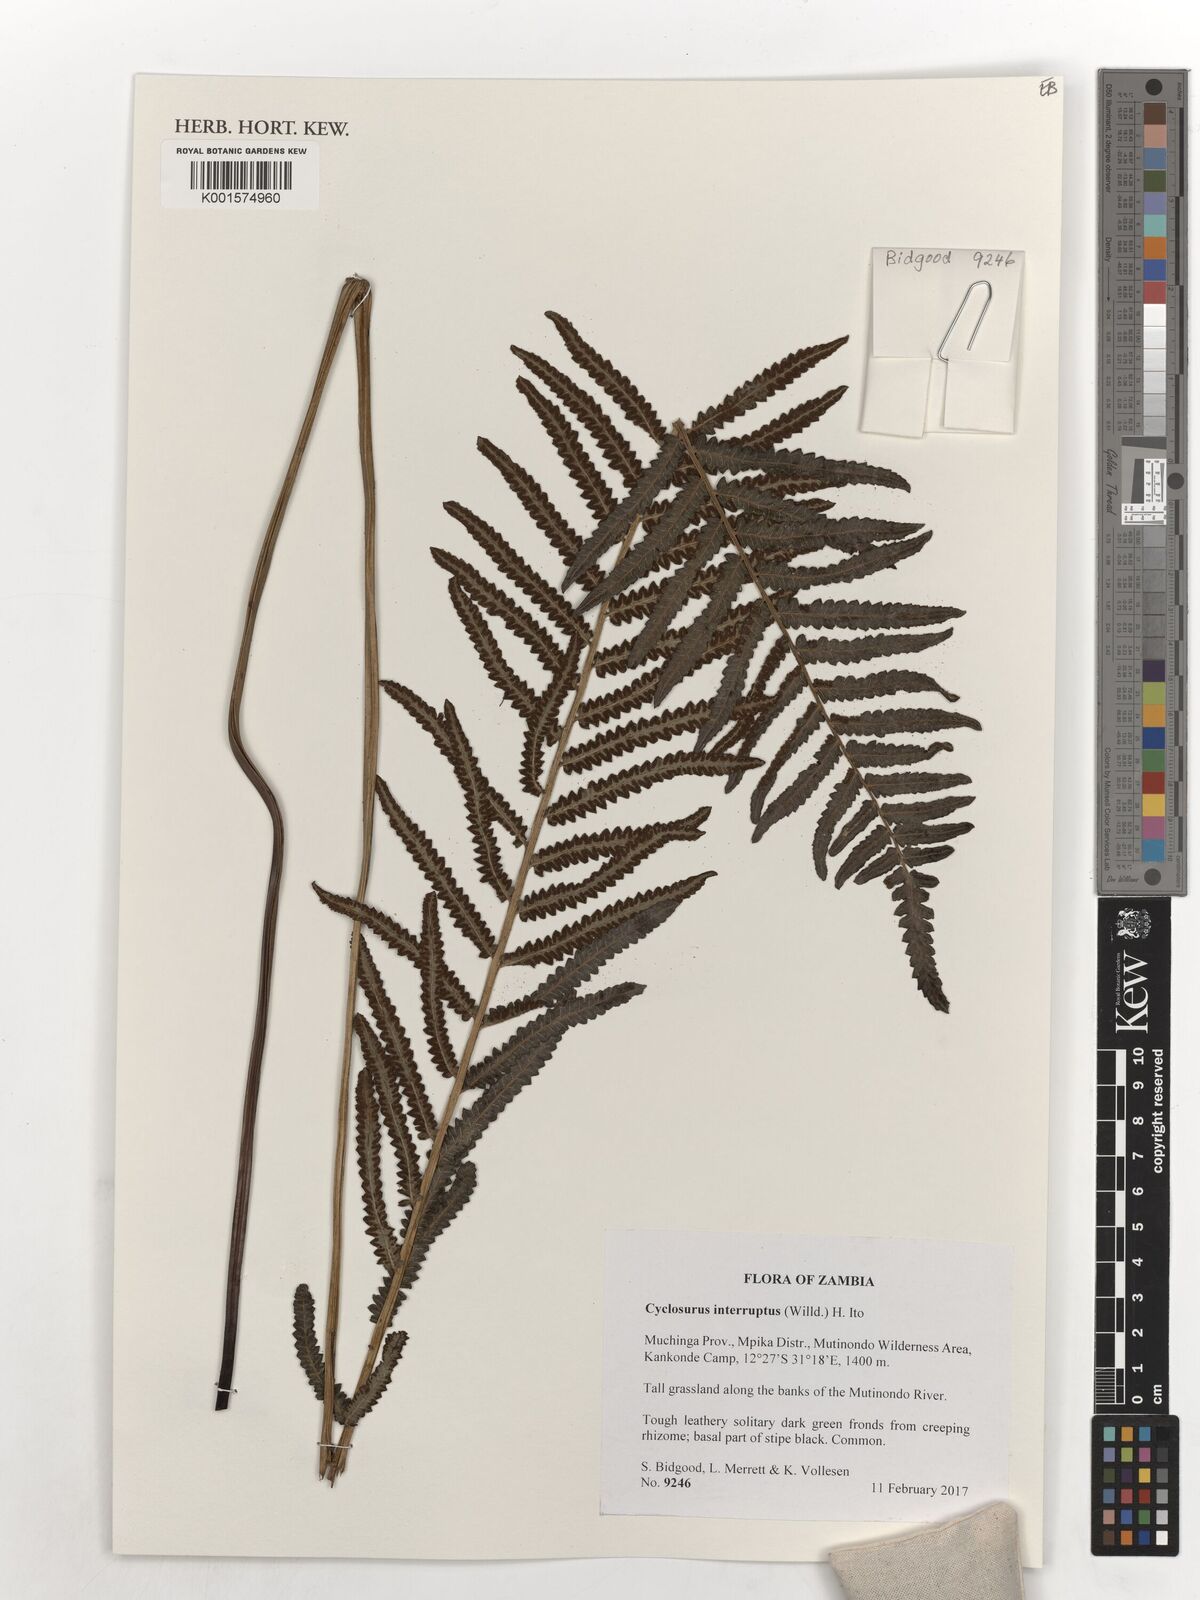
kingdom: Plantae
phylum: Tracheophyta
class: Polypodiopsida
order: Polypodiales
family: Thelypteridaceae
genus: Cyclosorus
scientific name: Cyclosorus interruptus
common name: Neke fern
